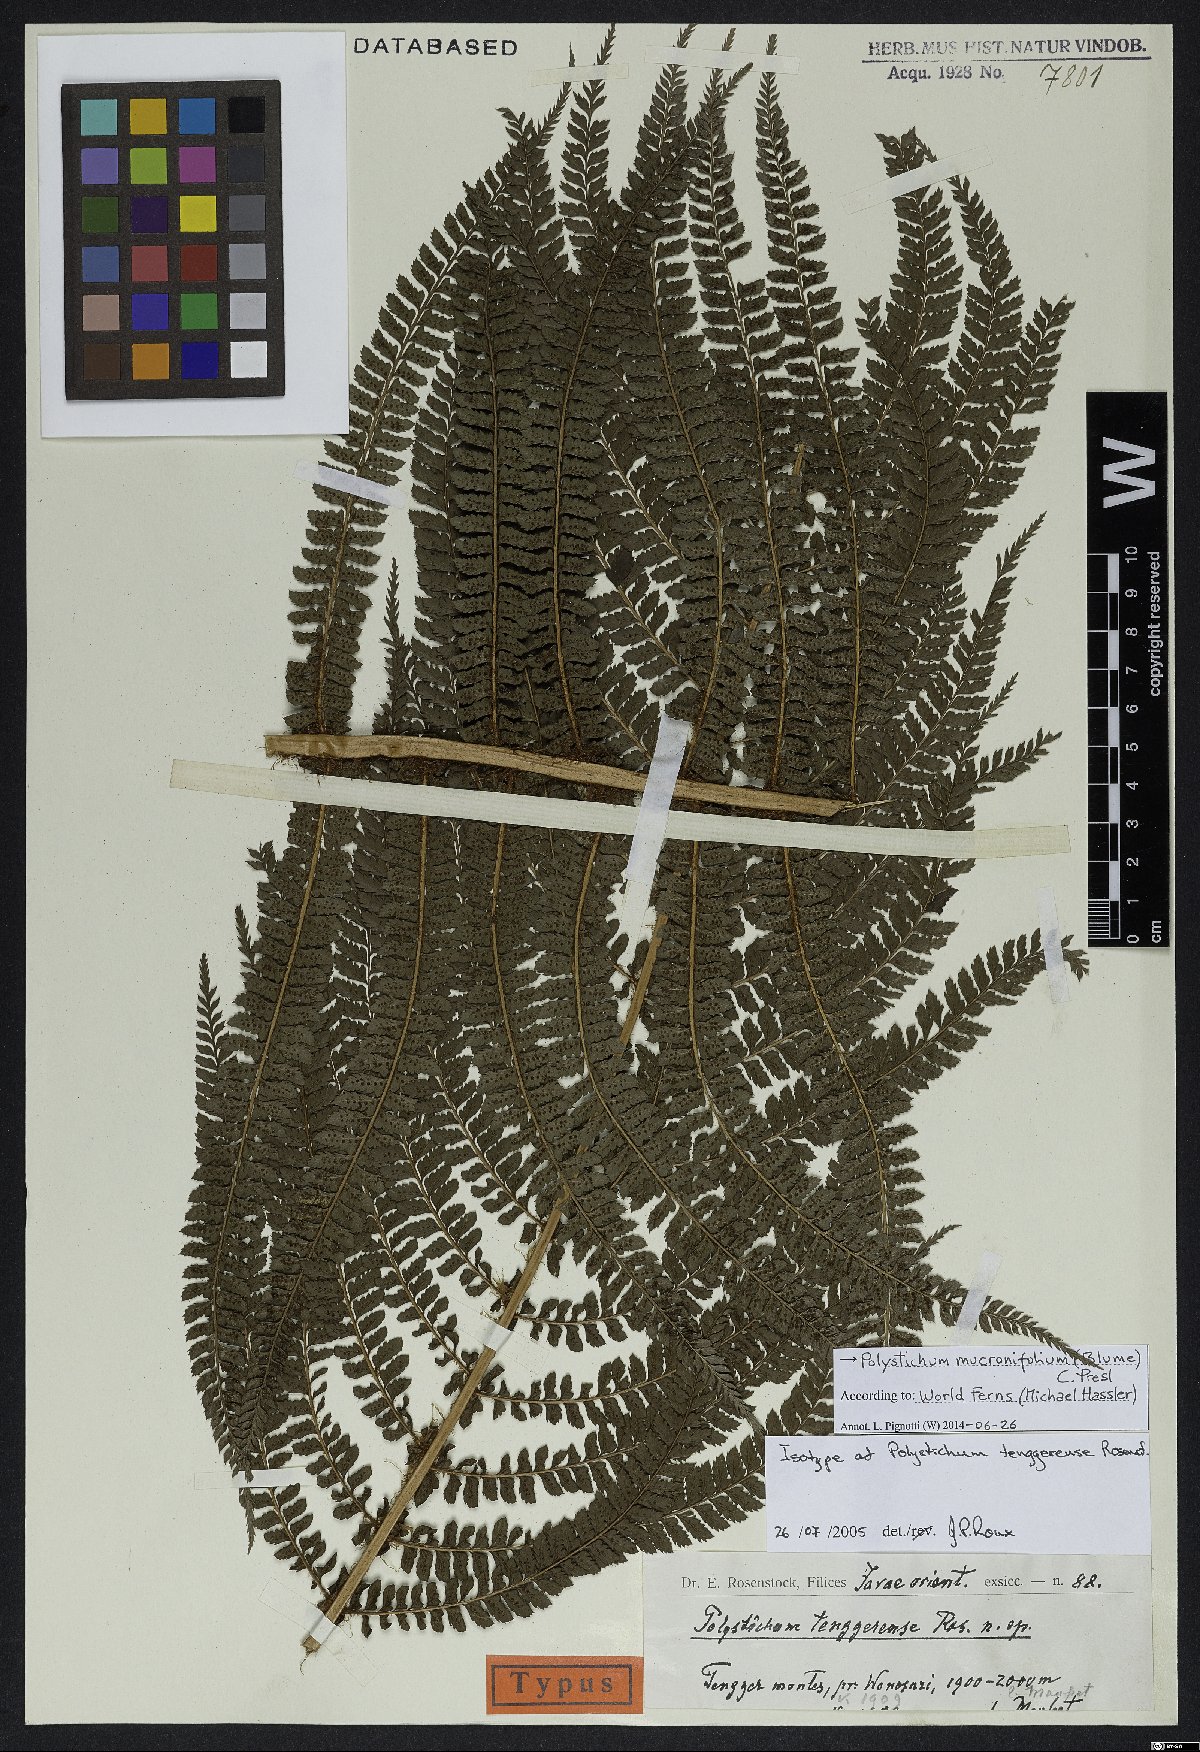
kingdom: Plantae
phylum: Tracheophyta
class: Polypodiopsida
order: Polypodiales
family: Dryopteridaceae
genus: Polystichum
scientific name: Polystichum mucronifolium
